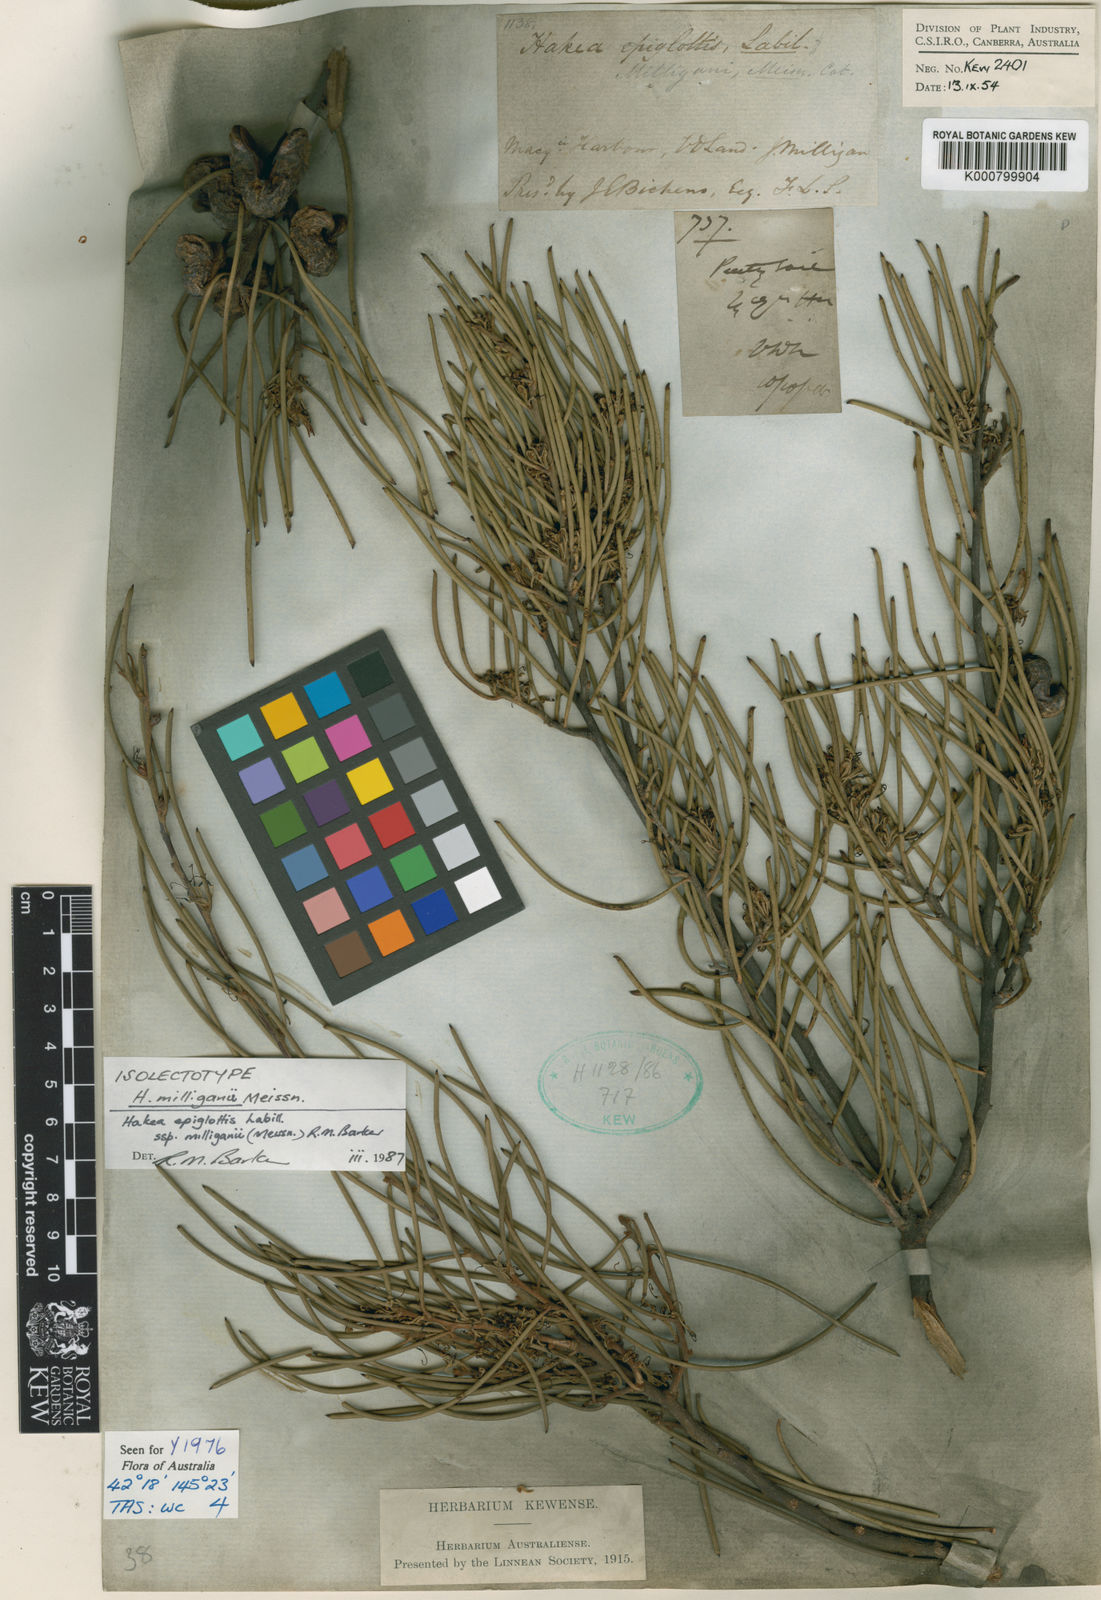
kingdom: Plantae
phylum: Tracheophyta
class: Magnoliopsida
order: Proteales
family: Proteaceae
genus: Hakea
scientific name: Hakea epiglottis
